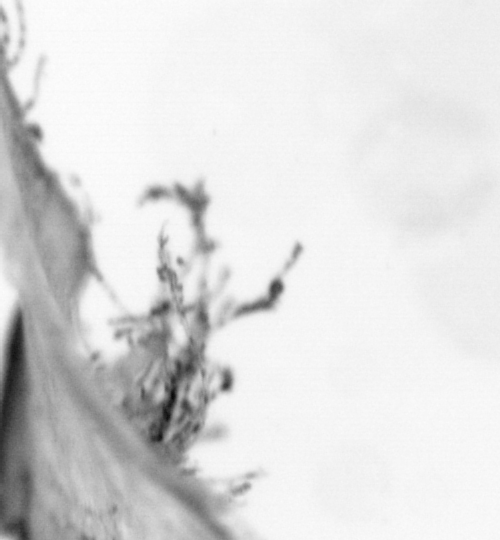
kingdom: Animalia
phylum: Chordata
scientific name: Chordata
